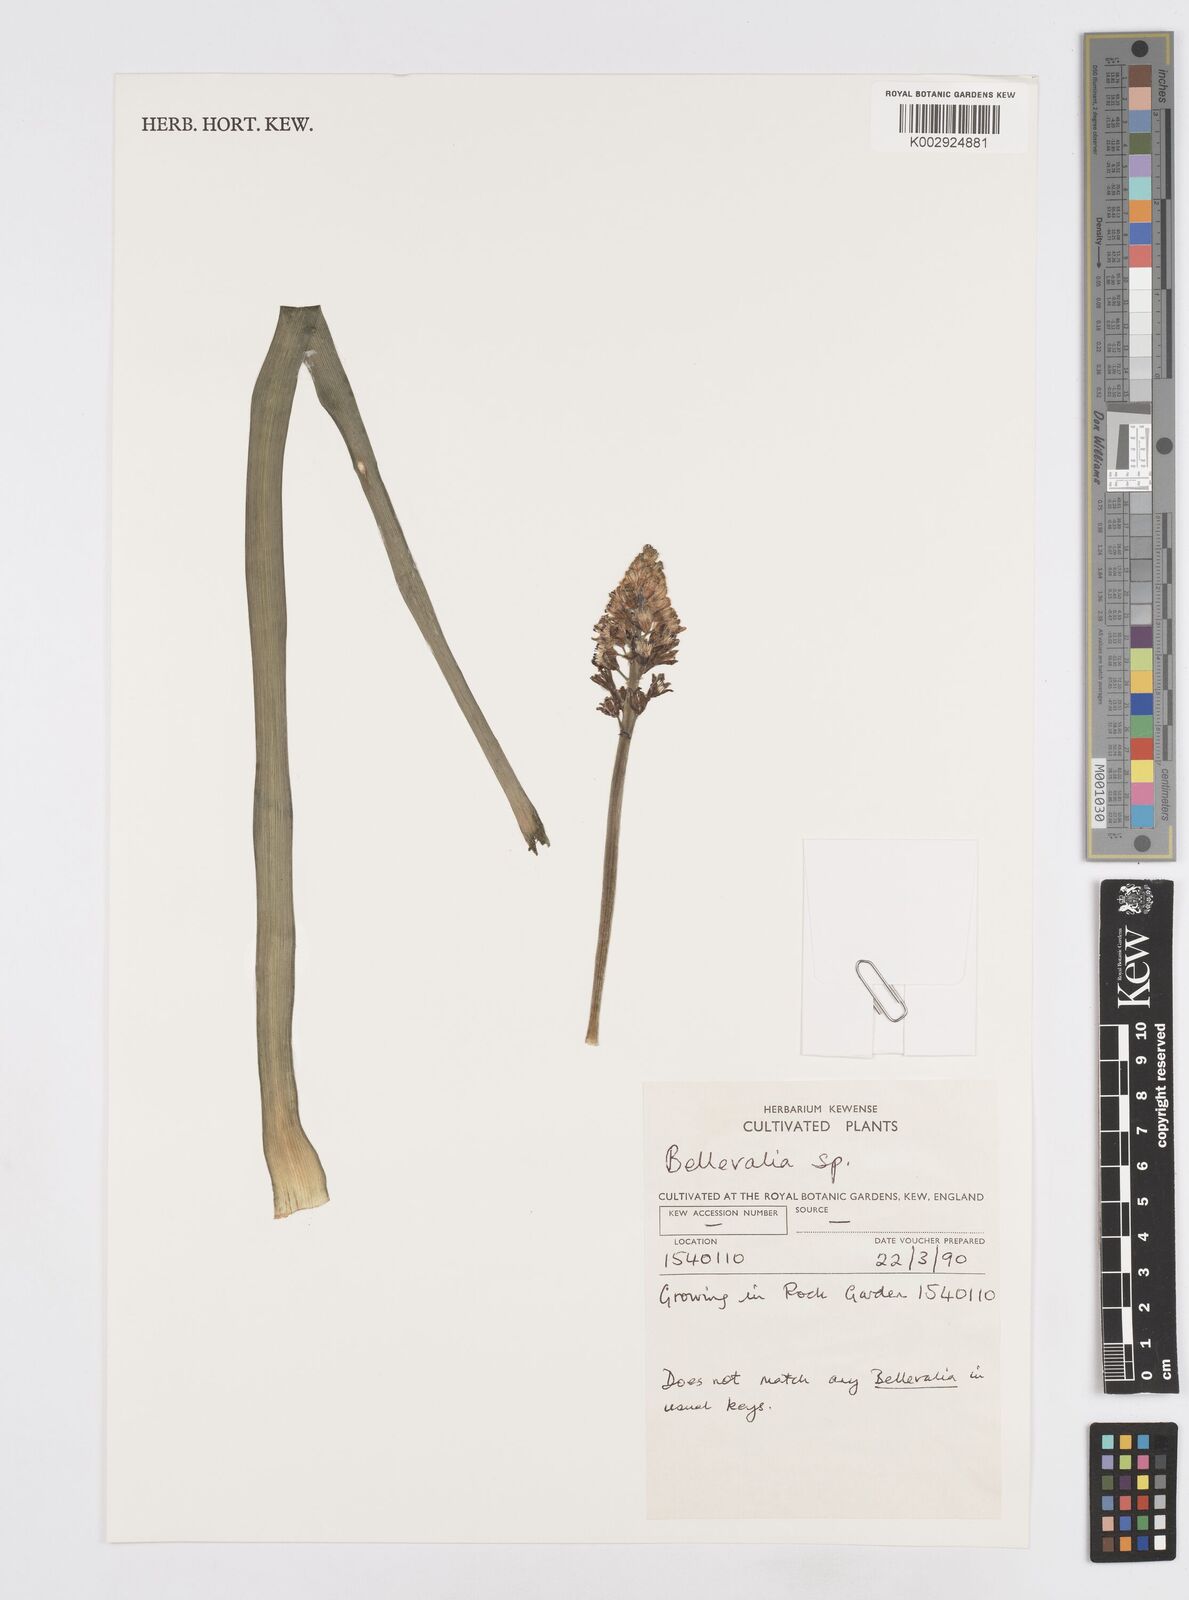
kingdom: Plantae
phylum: Tracheophyta
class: Liliopsida
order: Asparagales
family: Asparagaceae
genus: Bellevalia
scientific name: Bellevalia
